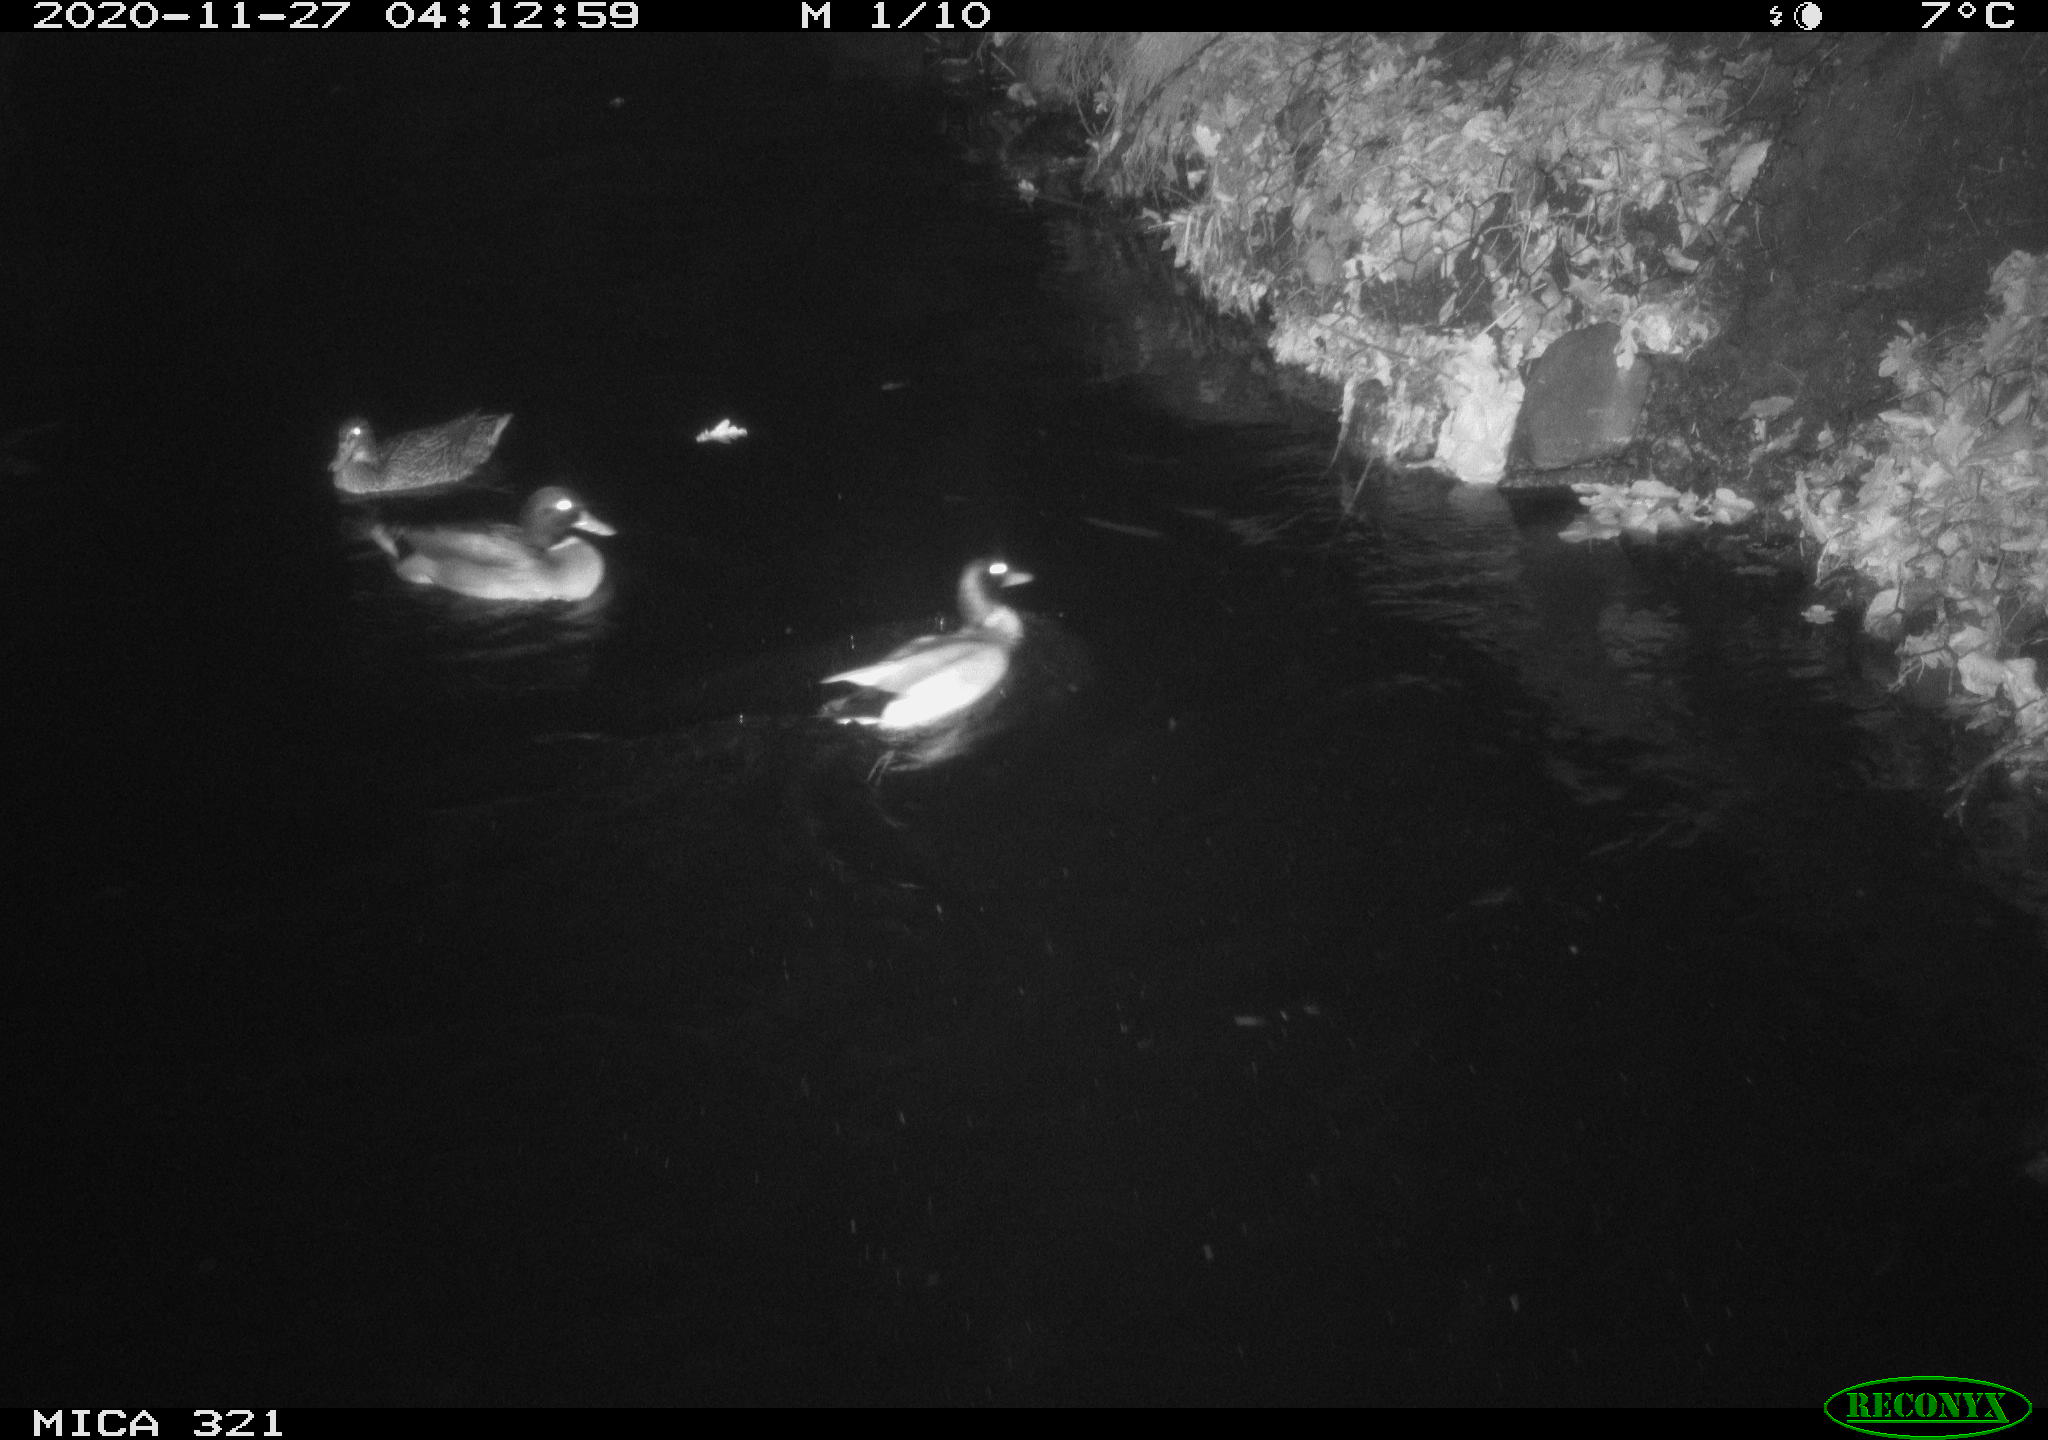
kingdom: Animalia
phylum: Chordata
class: Aves
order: Anseriformes
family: Anatidae
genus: Anas
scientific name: Anas platyrhynchos
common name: Mallard
